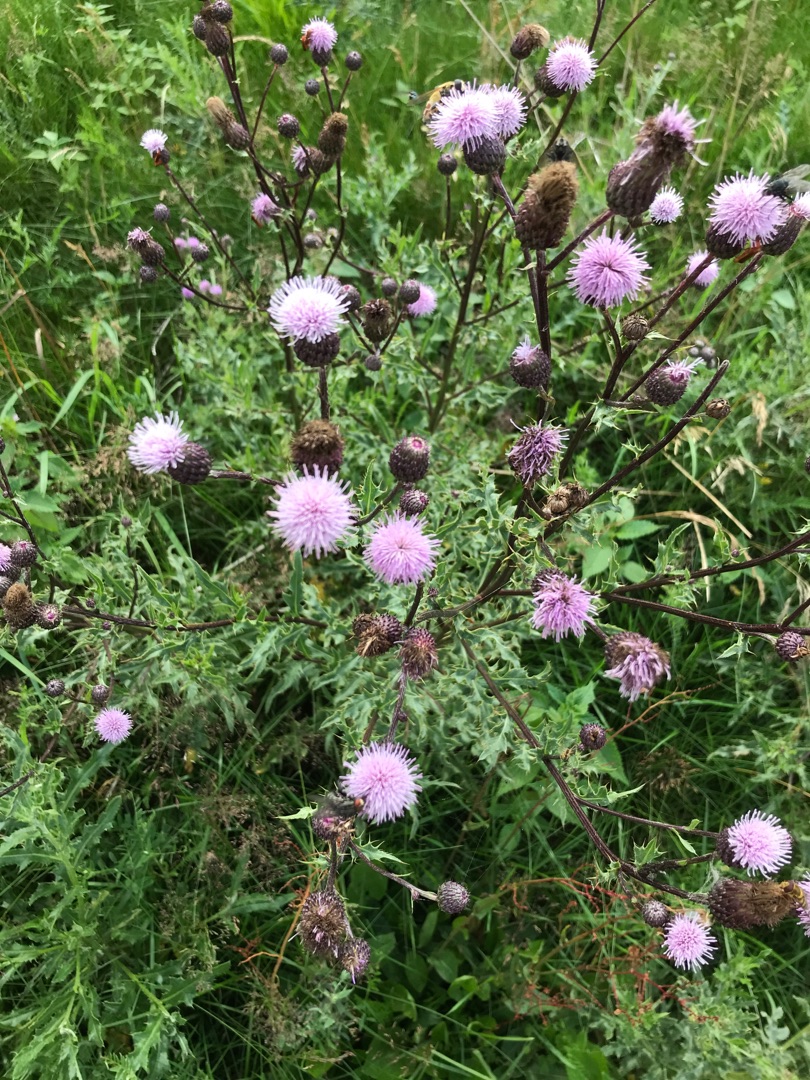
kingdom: Plantae
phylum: Tracheophyta
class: Magnoliopsida
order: Asterales
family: Asteraceae
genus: Cirsium
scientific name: Cirsium arvense
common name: Ager-tidsel
